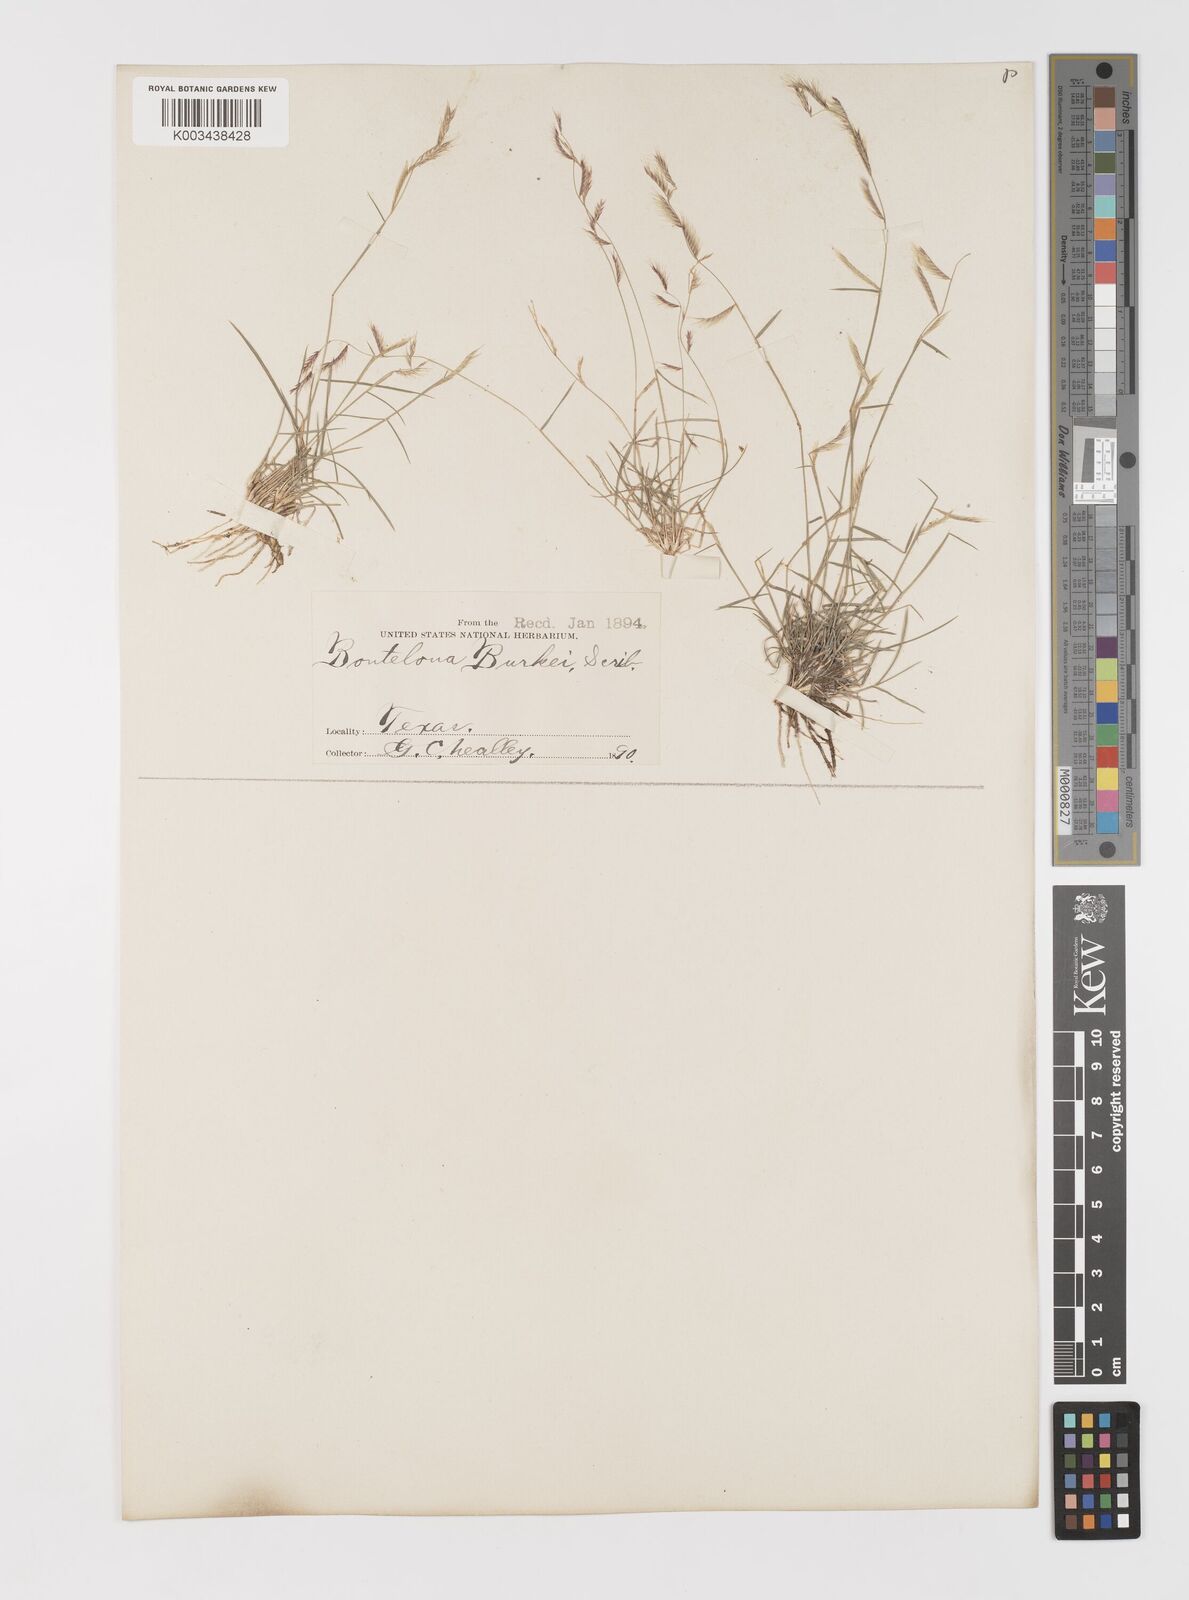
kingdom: Plantae
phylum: Tracheophyta
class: Liliopsida
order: Poales
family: Poaceae
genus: Bouteloua
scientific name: Bouteloua trifida
